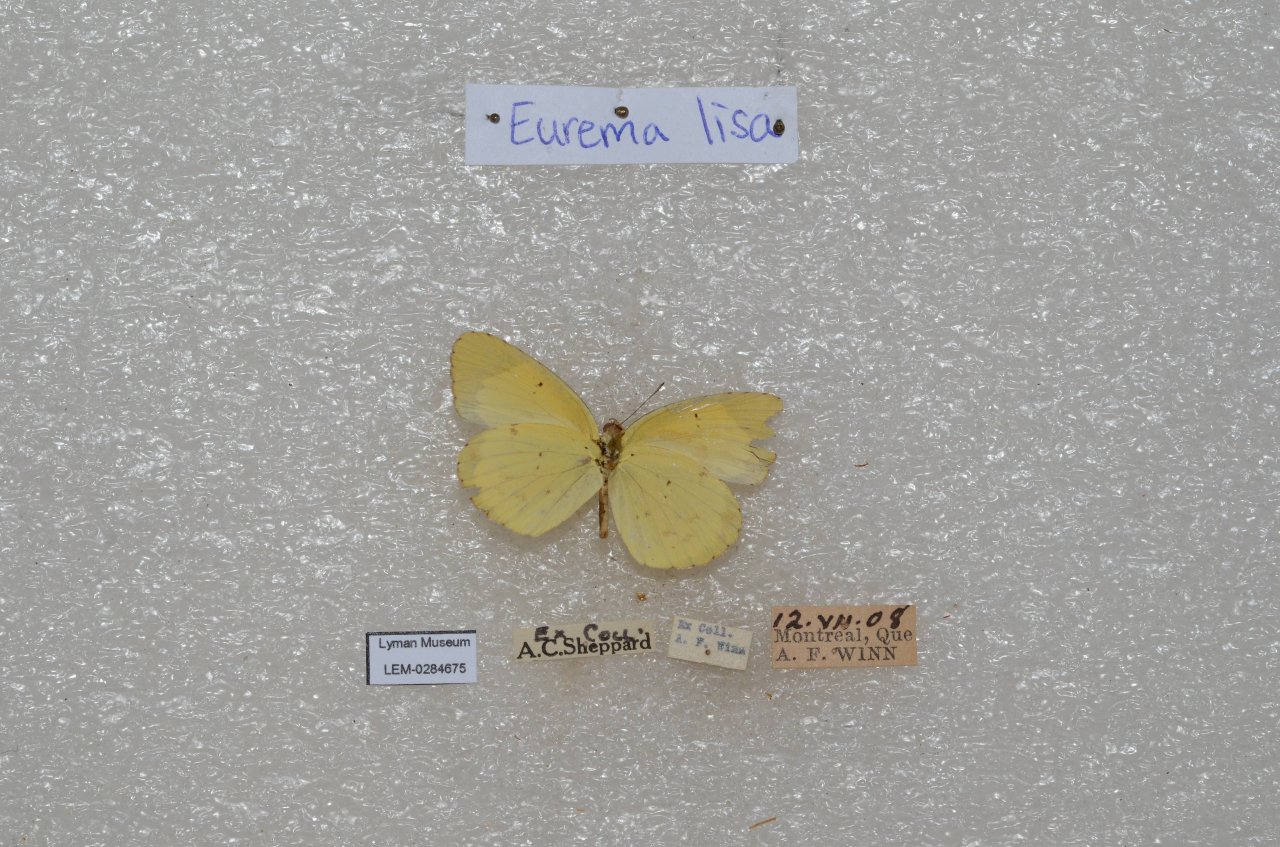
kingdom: Animalia
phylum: Arthropoda
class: Insecta
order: Lepidoptera
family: Pieridae
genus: Pyrisitia
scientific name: Pyrisitia lisa
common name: Little Yellow
